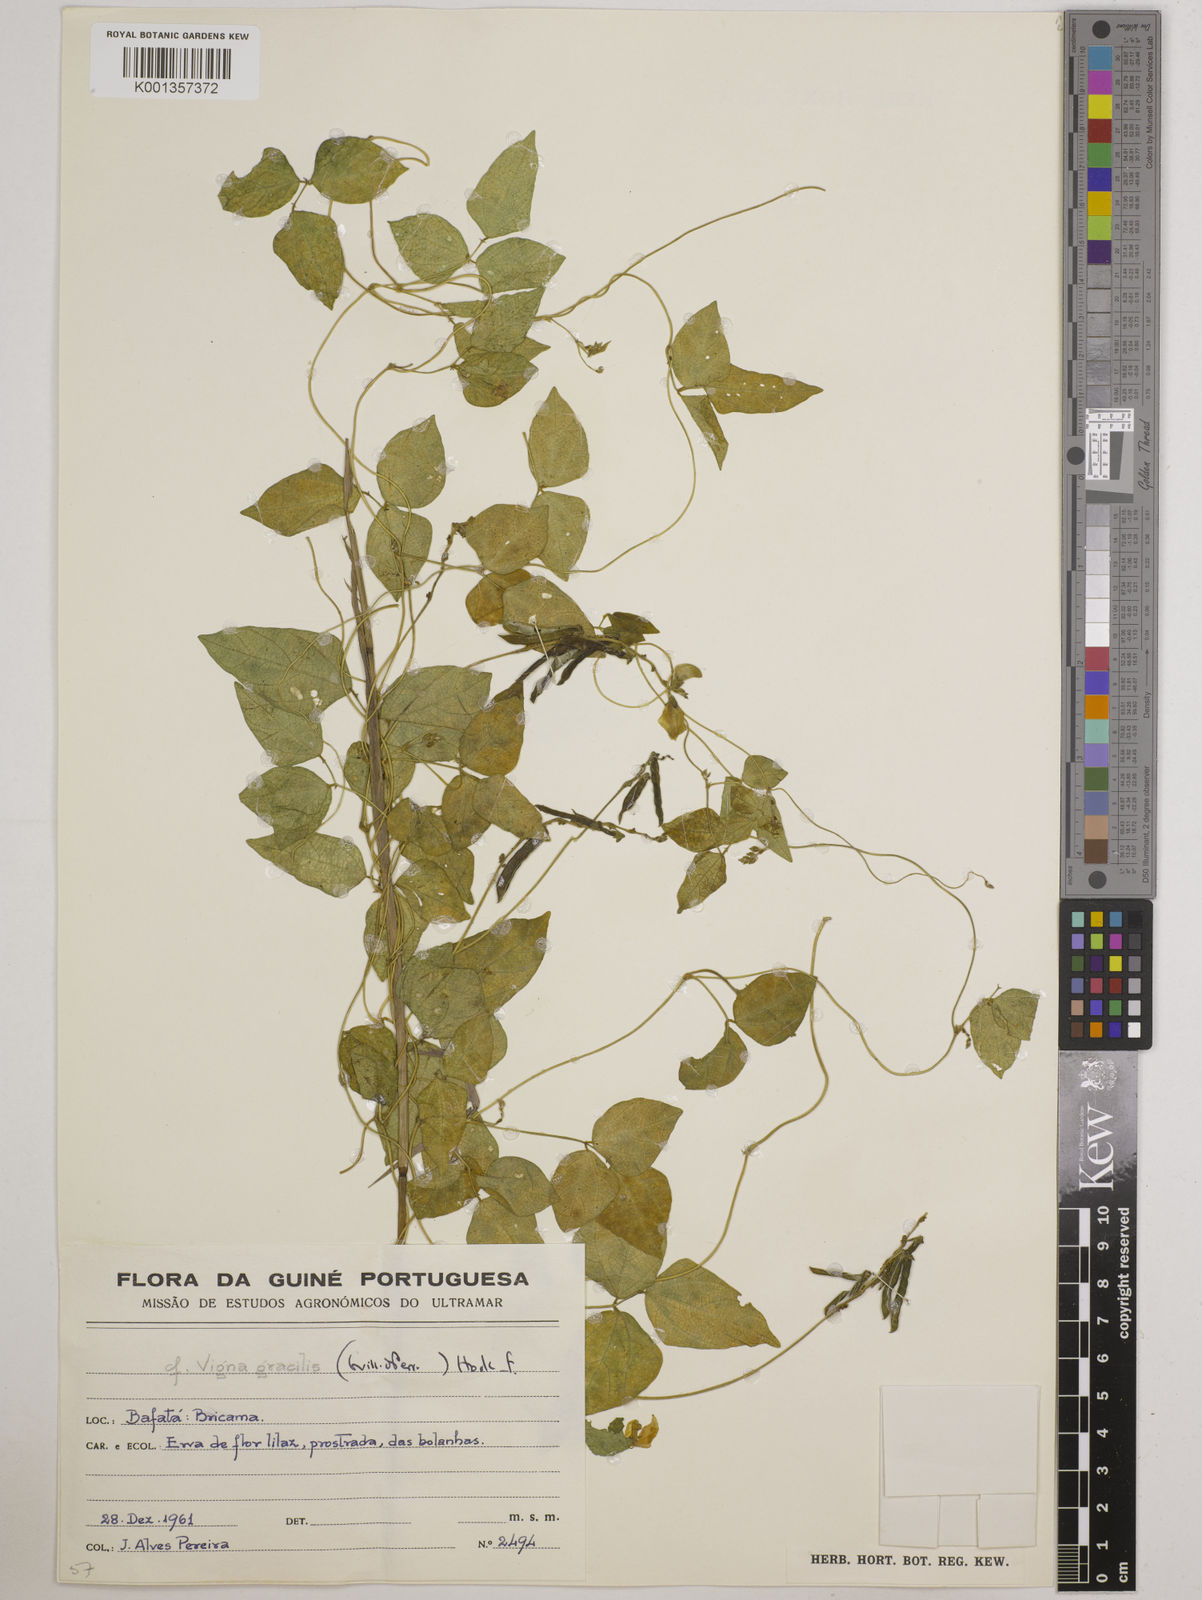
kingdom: Plantae
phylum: Tracheophyta
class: Magnoliopsida
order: Fabales
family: Fabaceae
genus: Vigna
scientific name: Vigna gracilis
